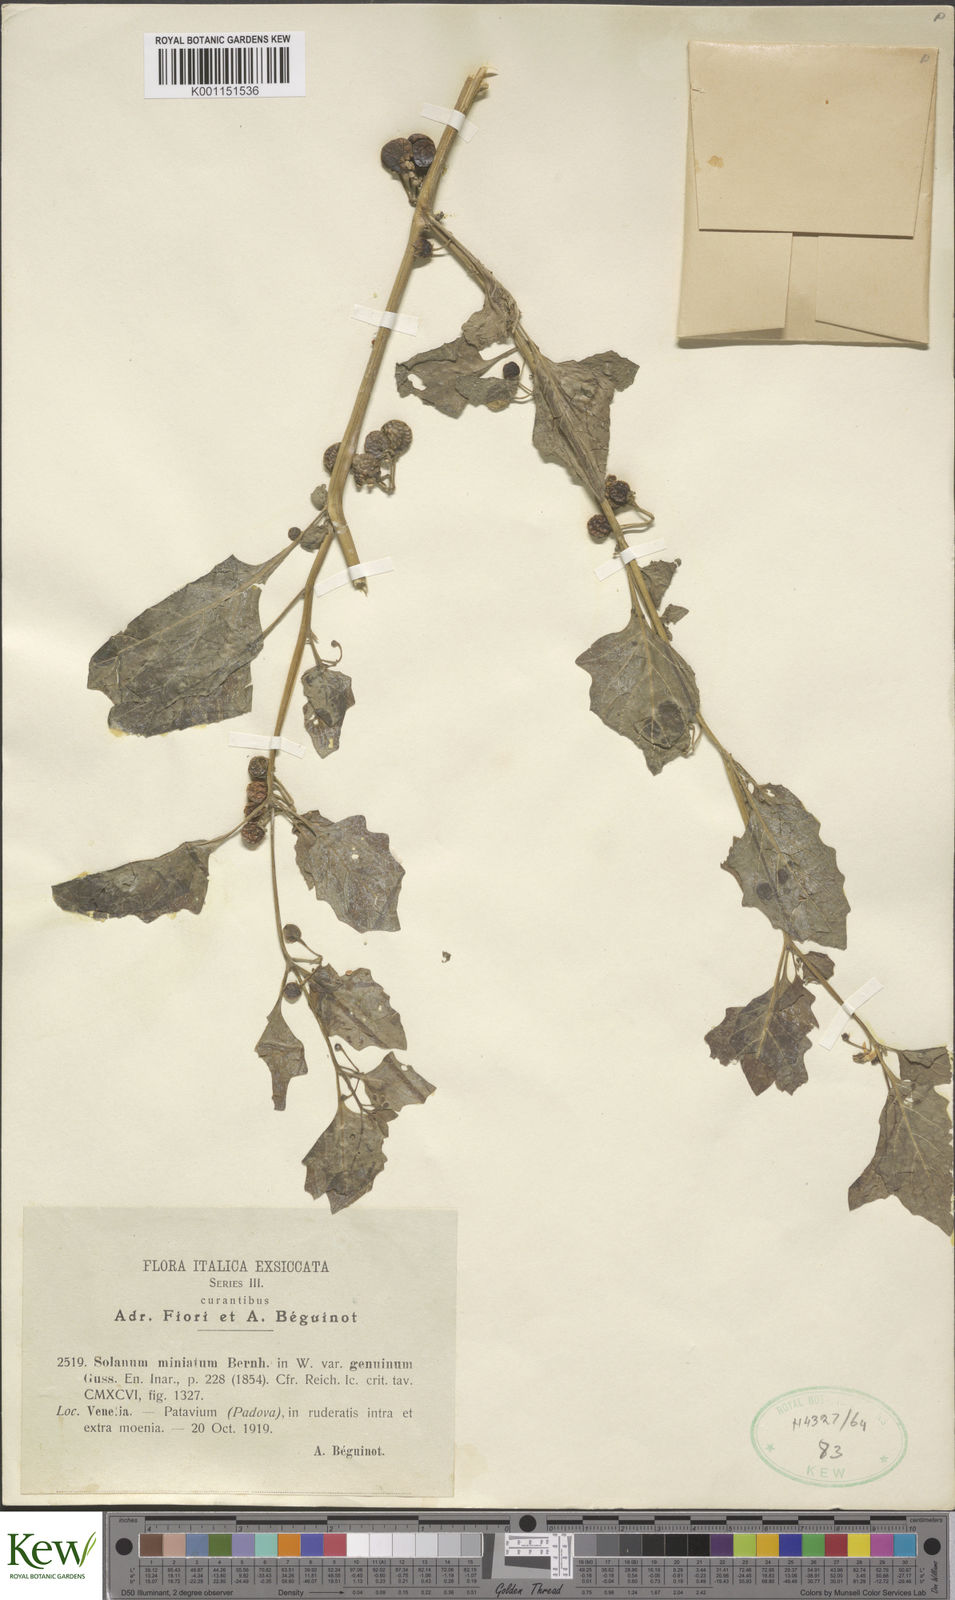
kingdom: Plantae
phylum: Tracheophyta
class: Magnoliopsida
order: Solanales
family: Solanaceae
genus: Solanum
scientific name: Solanum villosum
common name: Red nightshade
